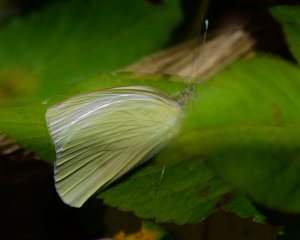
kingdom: Animalia
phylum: Arthropoda
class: Insecta
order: Lepidoptera
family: Pieridae
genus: Ascia
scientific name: Ascia monuste
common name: Great Southern White
